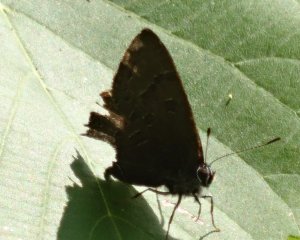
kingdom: Animalia
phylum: Arthropoda
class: Insecta
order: Lepidoptera
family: Lycaenidae
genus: Satyrium
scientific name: Satyrium liparops
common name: Striped Hairstreak
